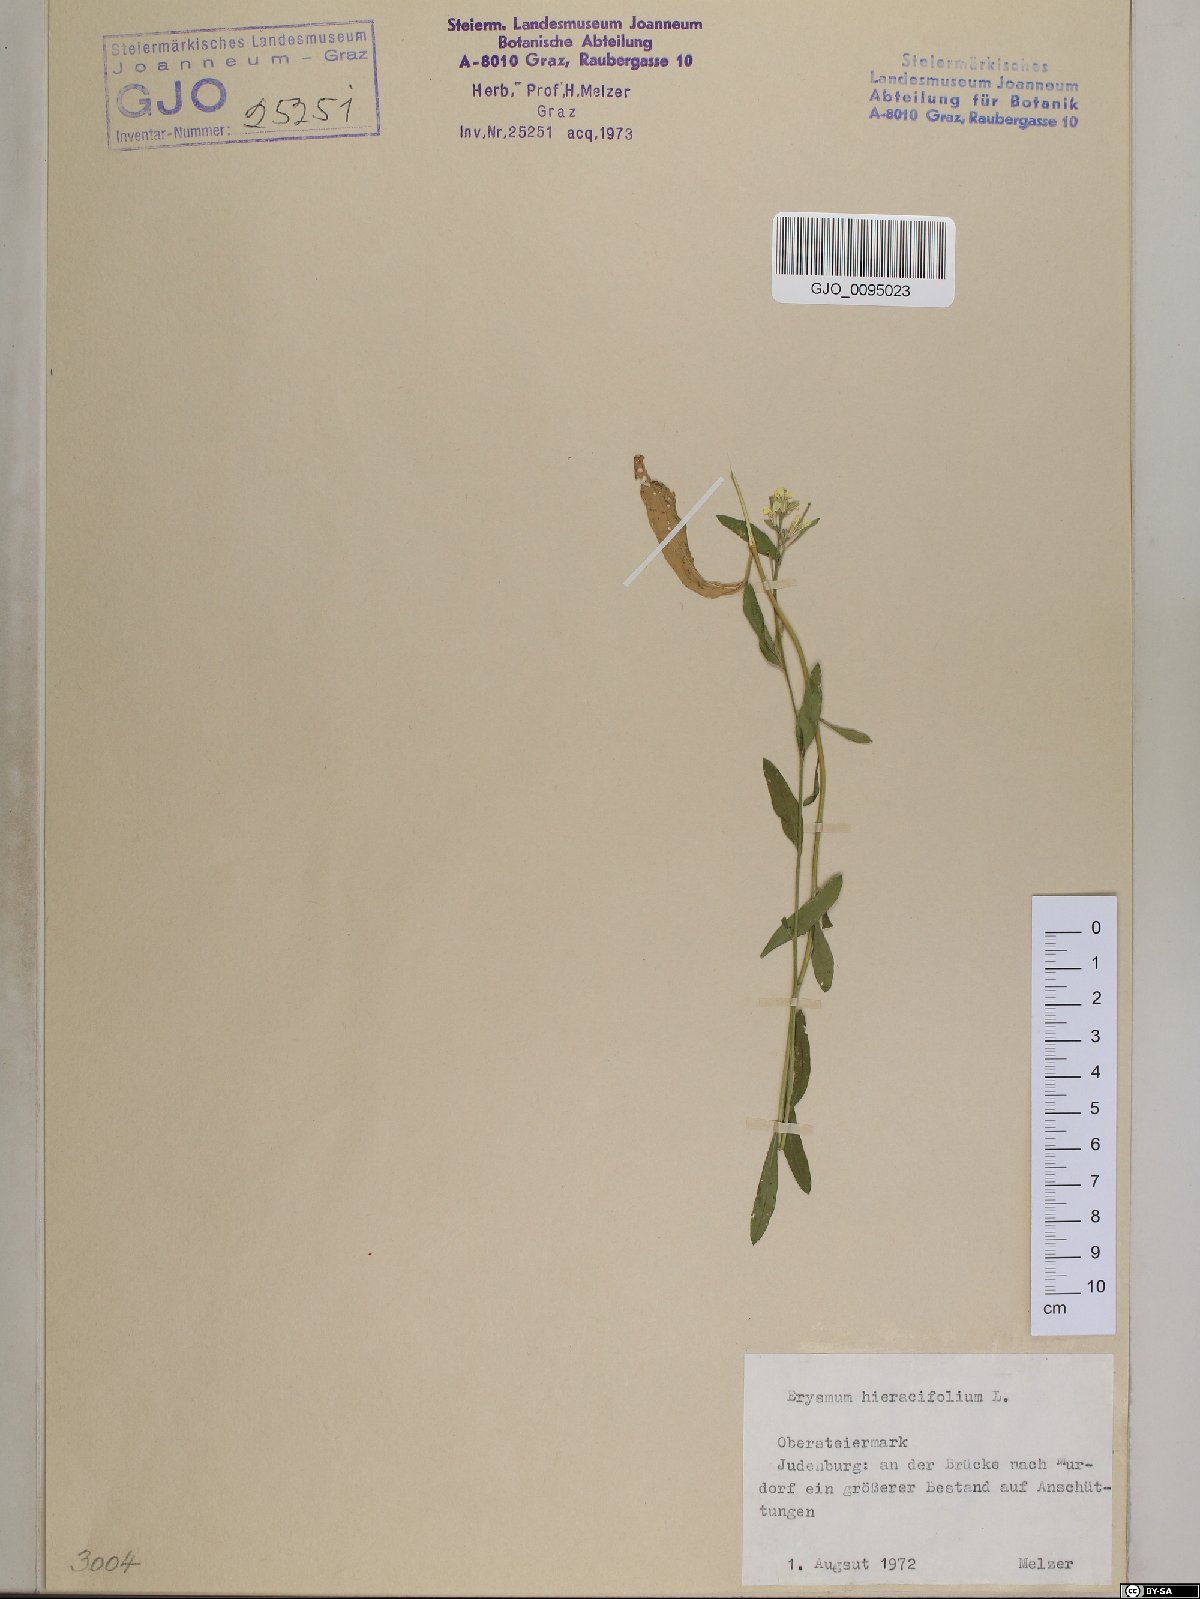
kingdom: Plantae
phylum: Tracheophyta
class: Magnoliopsida
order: Brassicales
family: Brassicaceae
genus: Erysimum
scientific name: Erysimum hieraciifolium
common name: European wallflower
